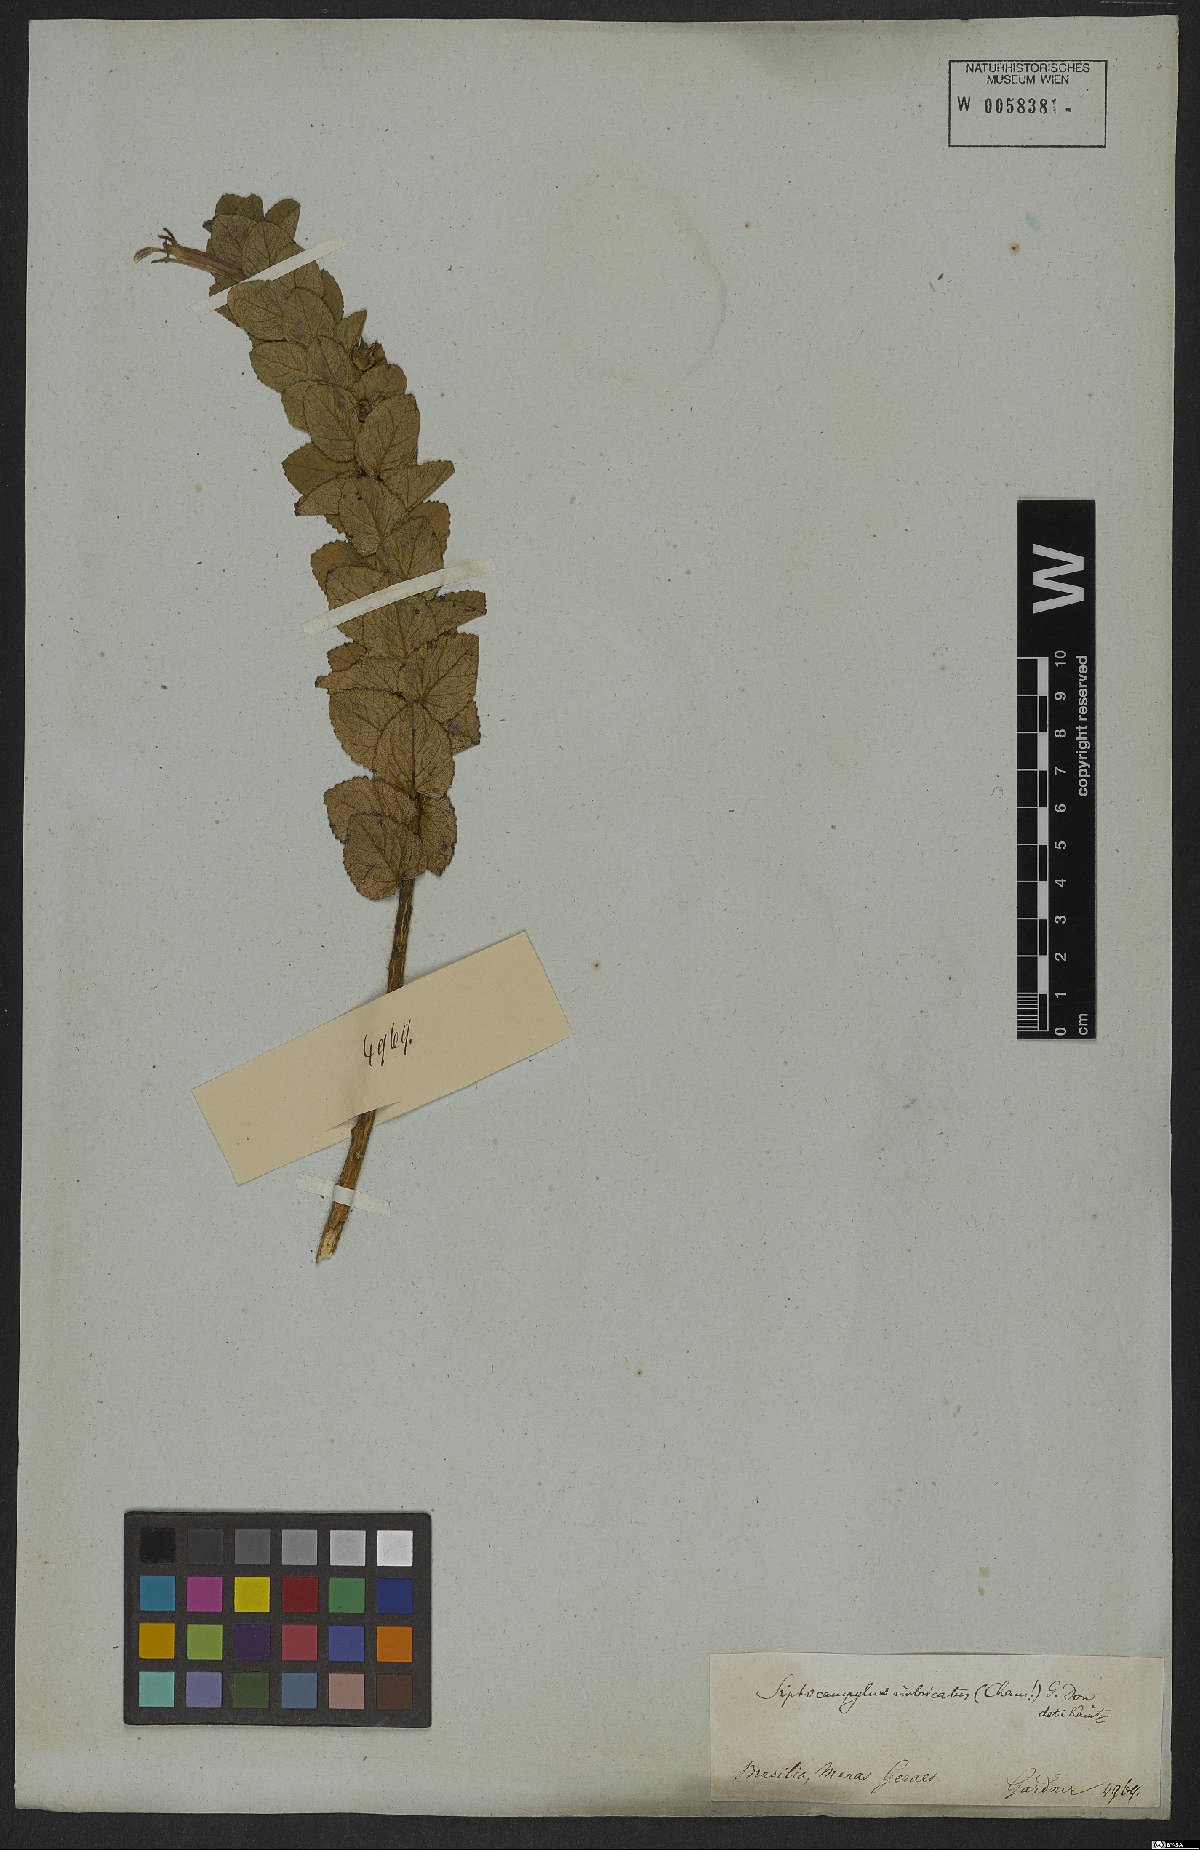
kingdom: Plantae
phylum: Tracheophyta
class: Magnoliopsida
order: Asterales
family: Campanulaceae
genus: Siphocampylus
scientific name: Siphocampylus imbricatus
